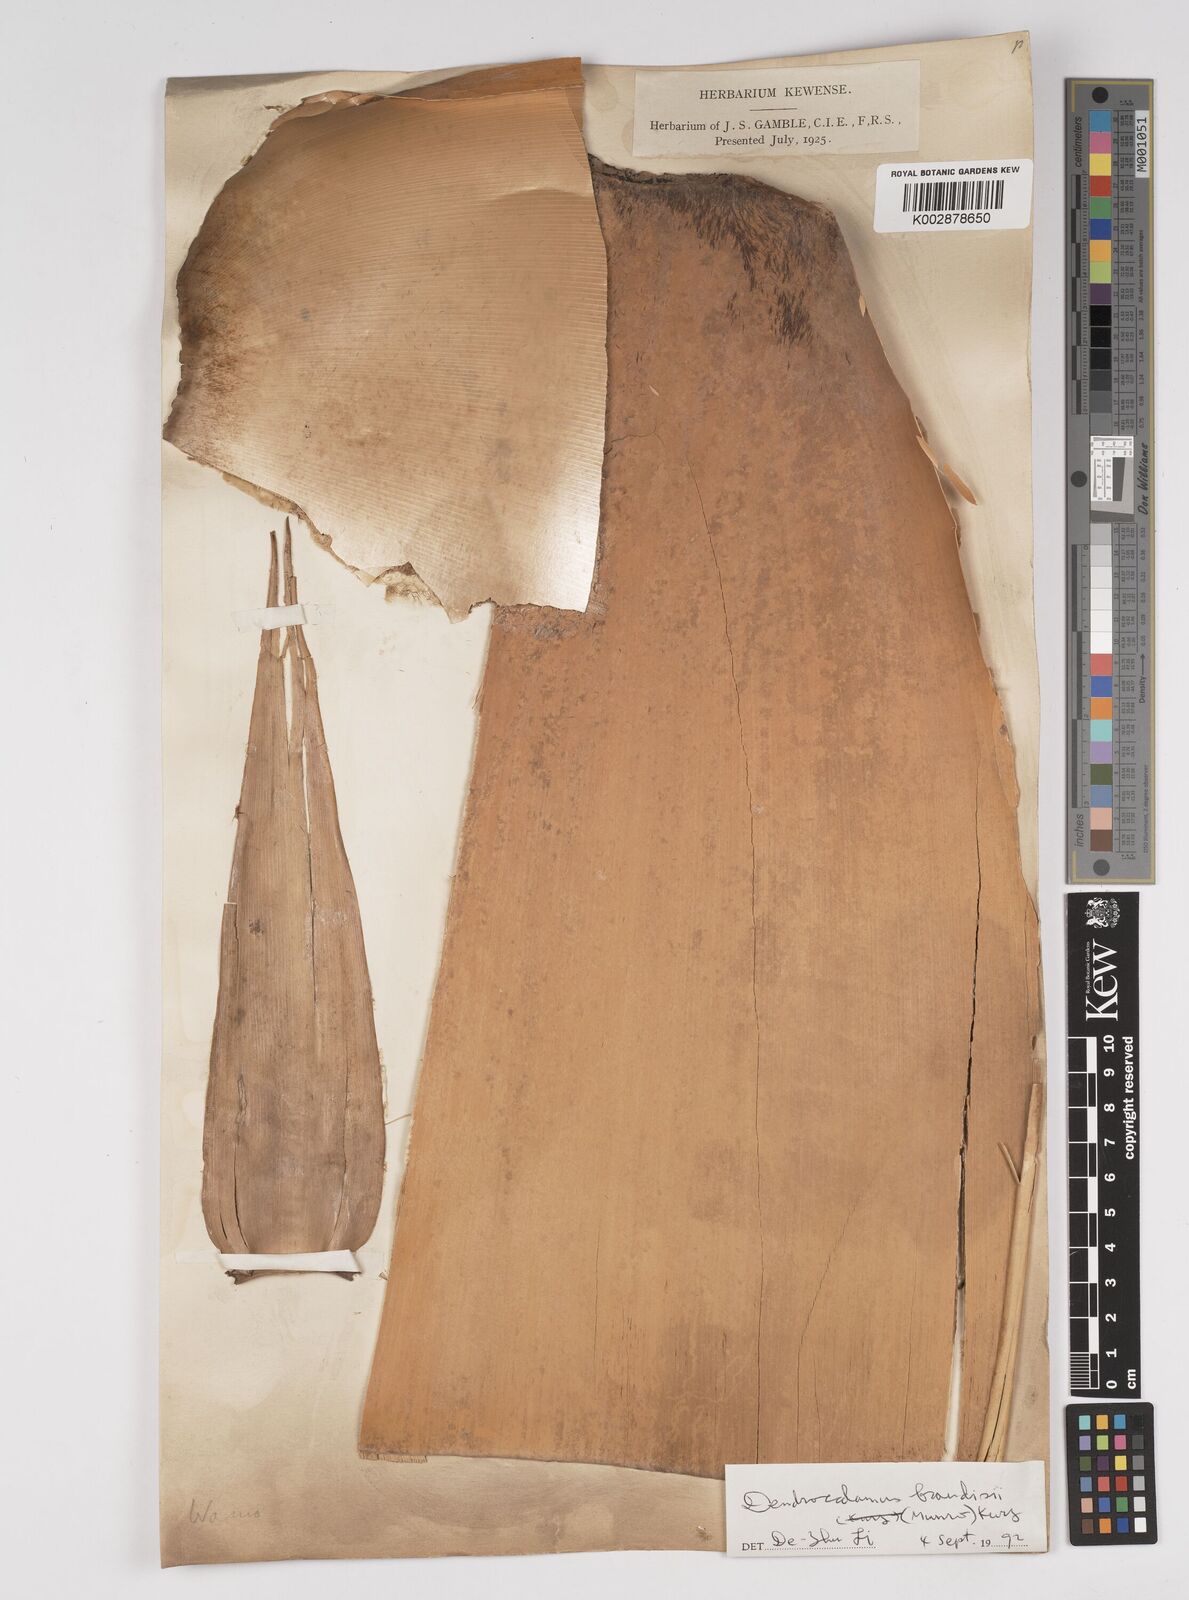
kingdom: Plantae
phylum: Tracheophyta
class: Liliopsida
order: Poales
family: Poaceae
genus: Dendrocalamus
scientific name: Dendrocalamus giganteus
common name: Giant bamboo
